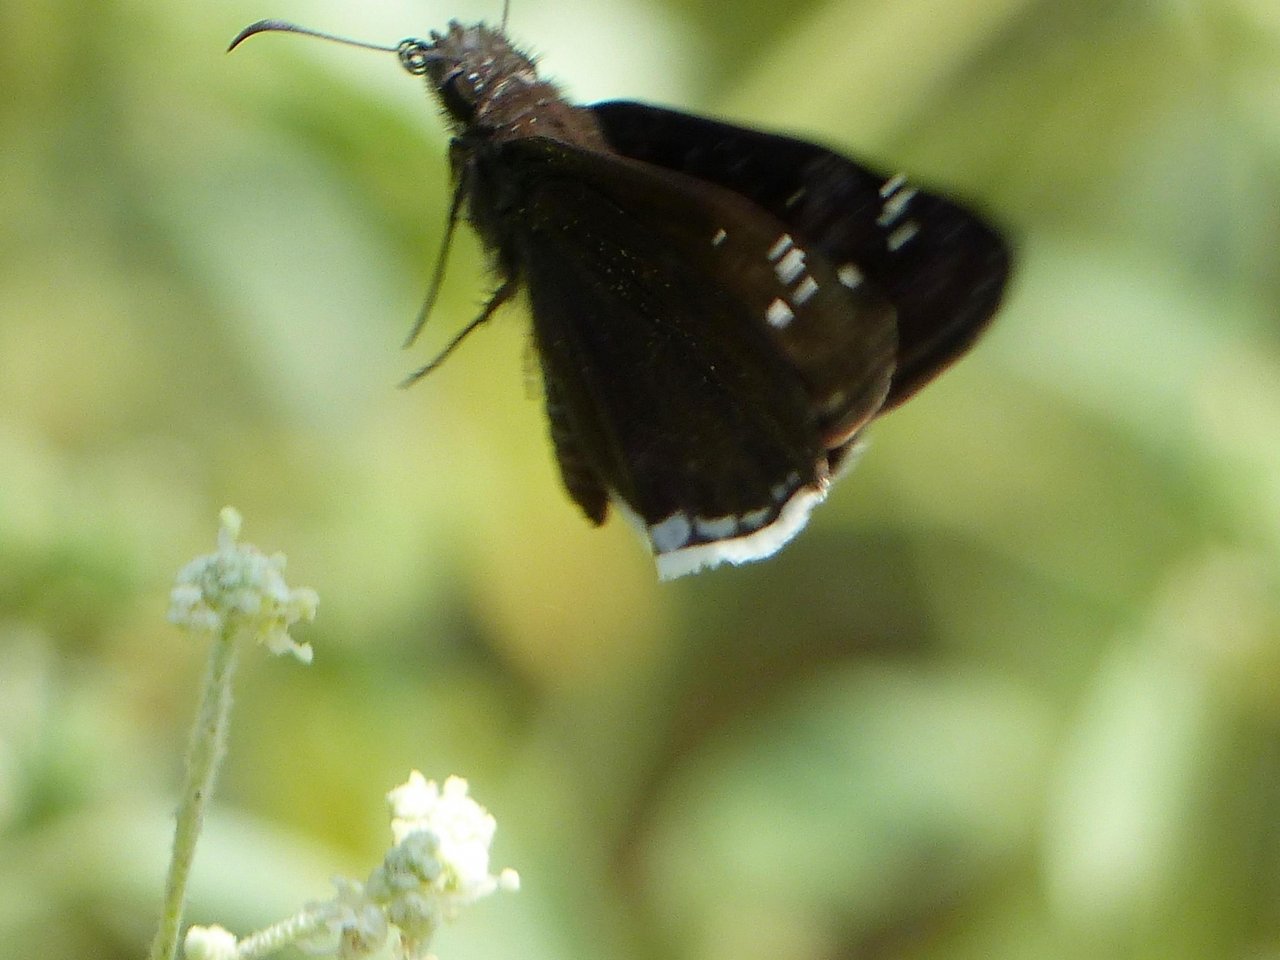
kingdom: Animalia
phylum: Arthropoda
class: Insecta
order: Lepidoptera
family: Hesperiidae
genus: Erynnis
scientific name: Erynnis tristis
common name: Mournful Duskywing
